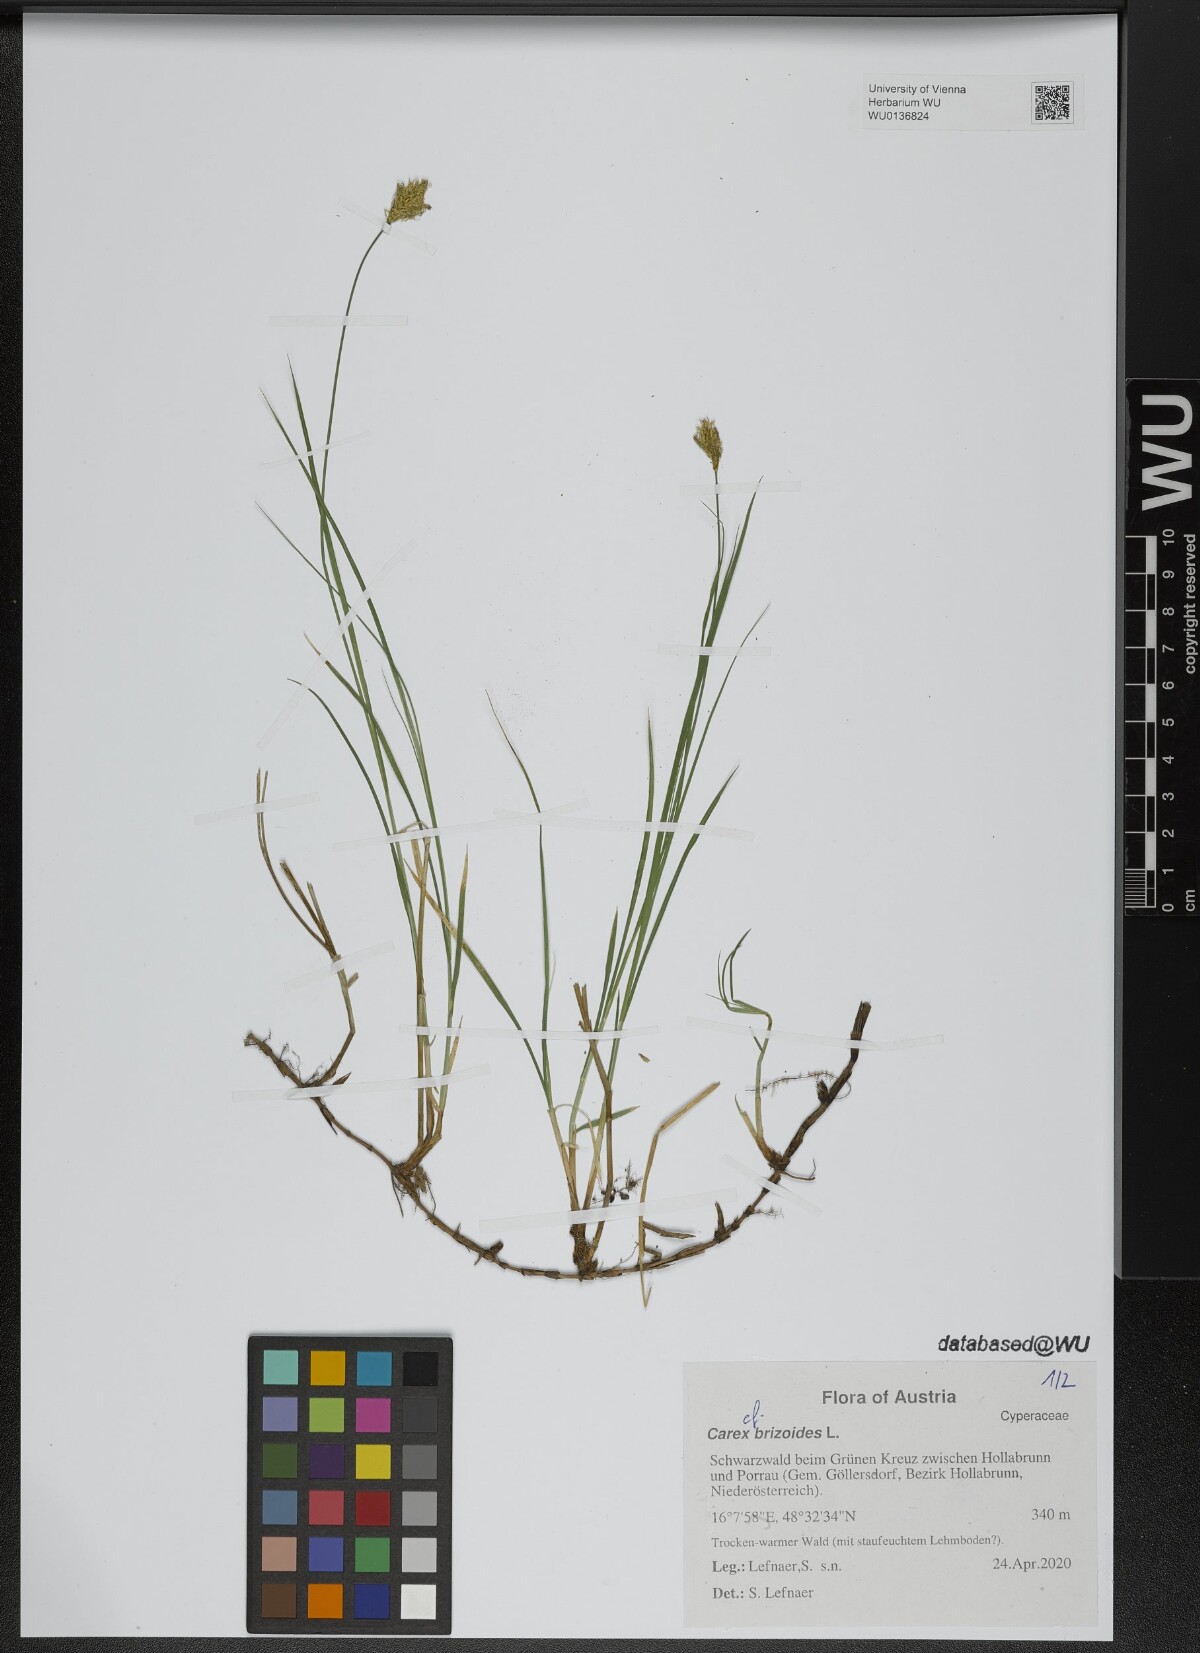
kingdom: Plantae
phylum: Tracheophyta
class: Liliopsida
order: Poales
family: Cyperaceae
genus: Carex
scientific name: Carex brizoides
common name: Quaking-grass sedge
